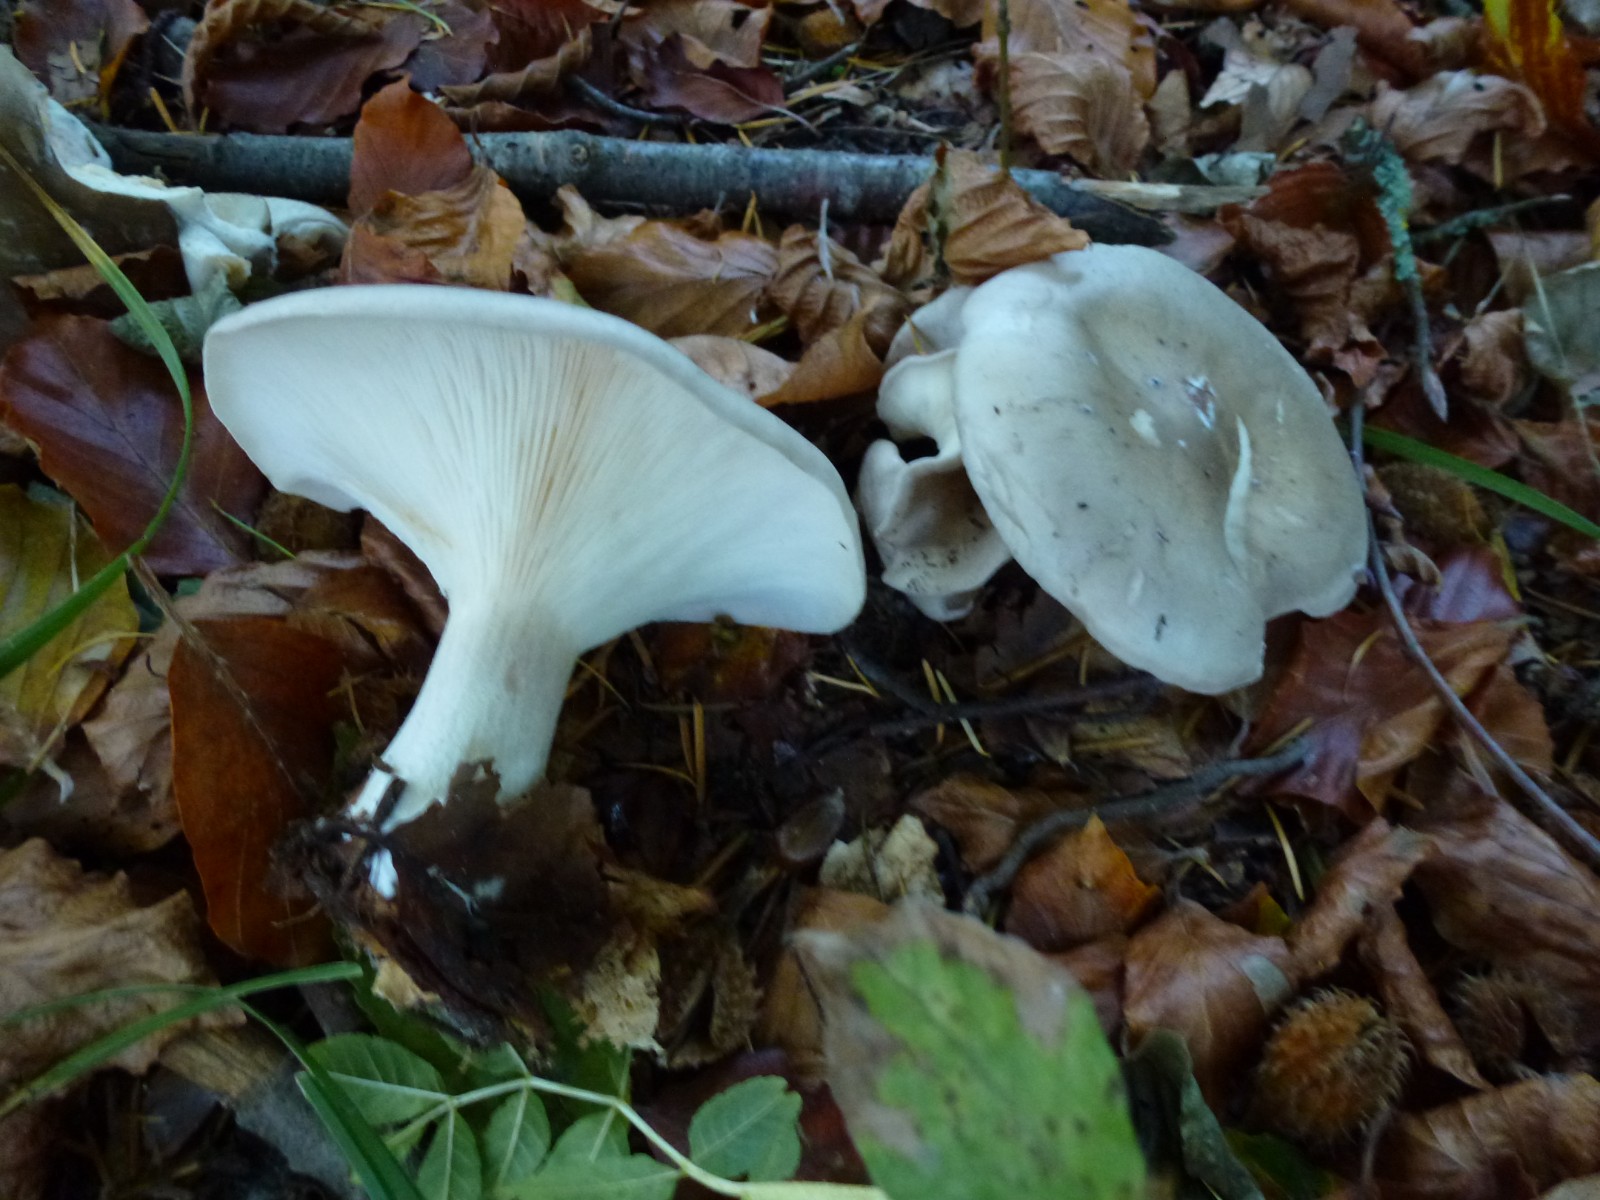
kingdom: Fungi
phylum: Basidiomycota
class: Agaricomycetes
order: Agaricales
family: Tricholomataceae
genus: Clitocybe
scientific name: Clitocybe nebularis
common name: tåge-tragthat
